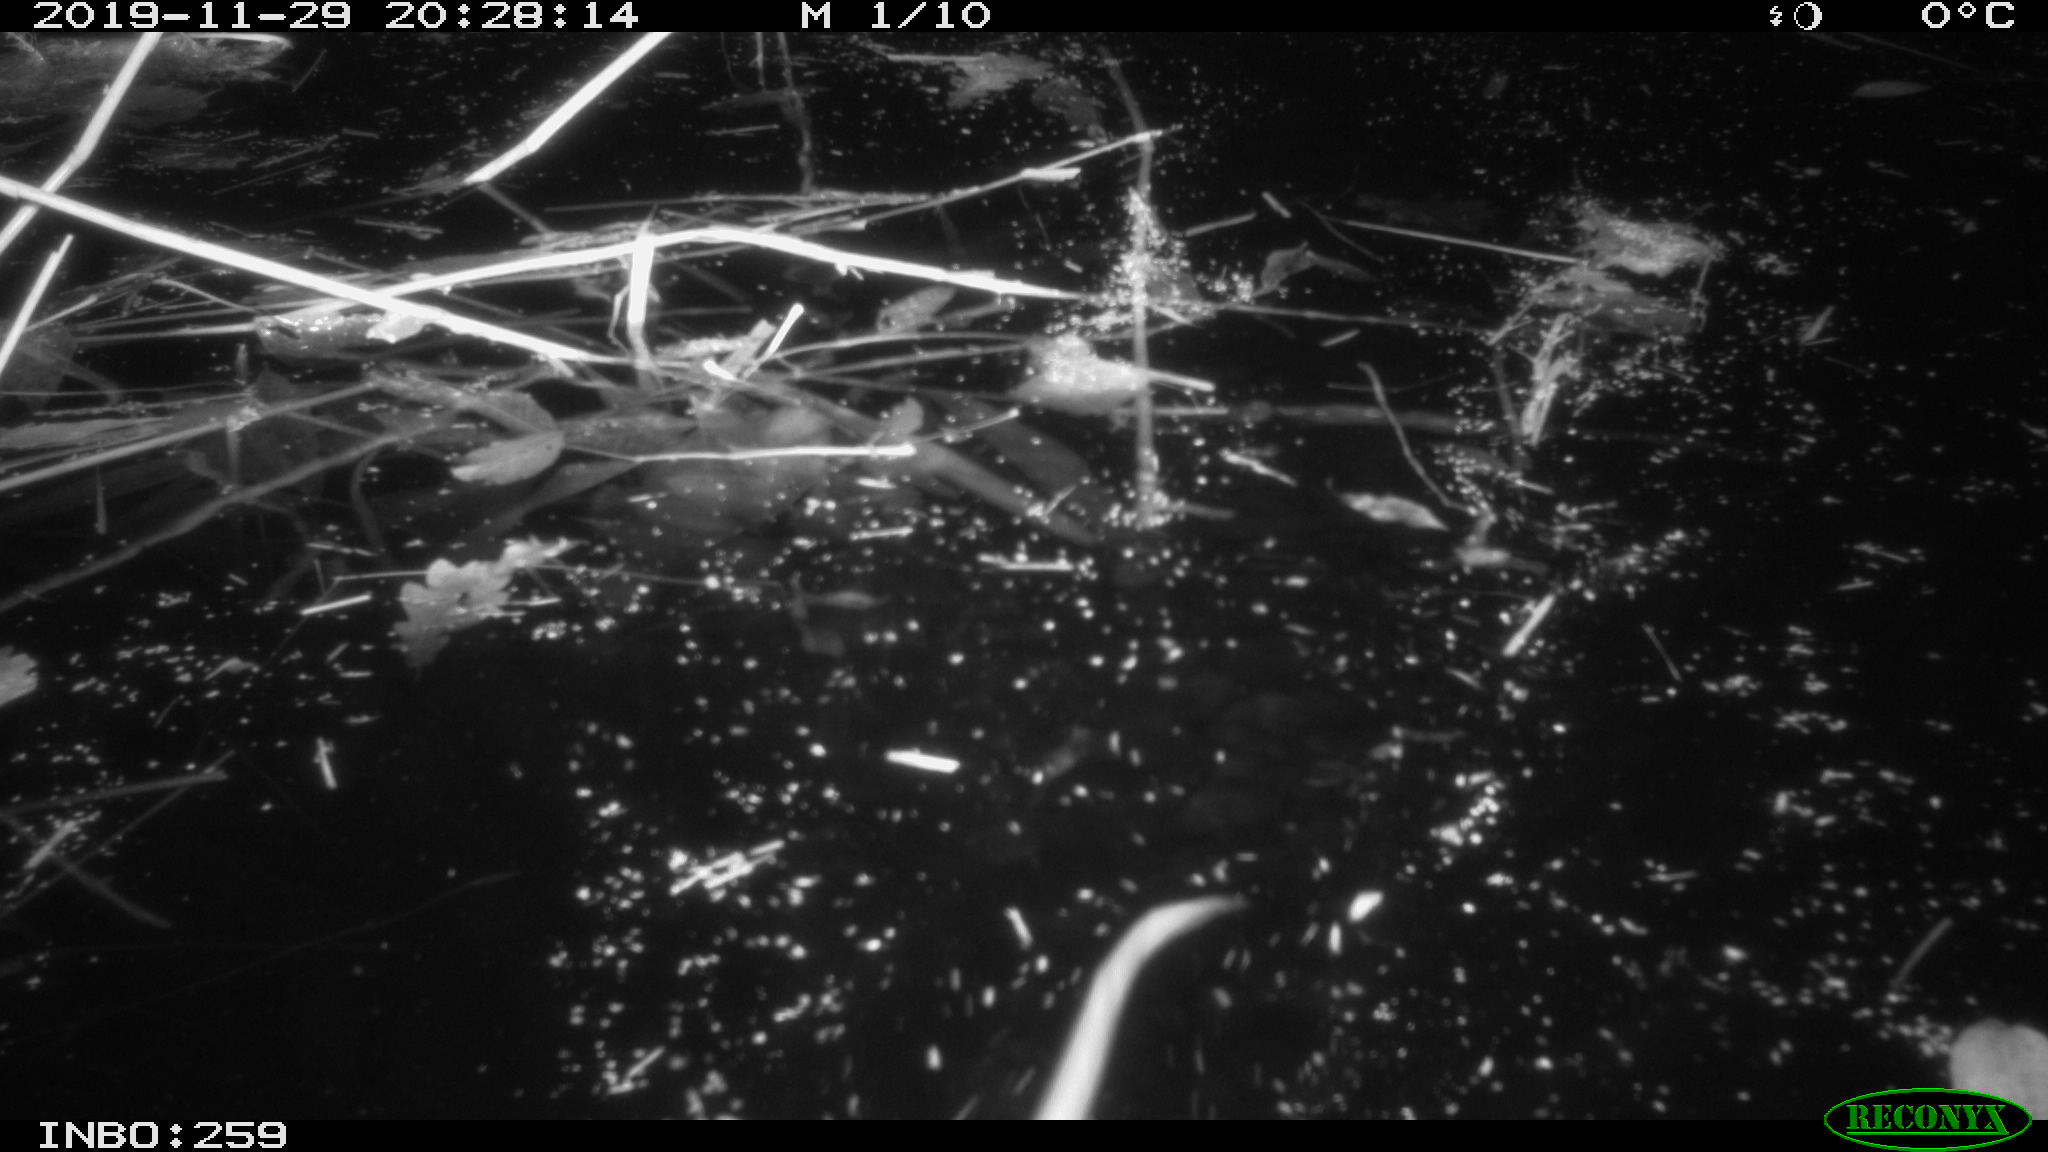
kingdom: Animalia
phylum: Chordata
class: Mammalia
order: Rodentia
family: Cricetidae
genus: Ondatra
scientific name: Ondatra zibethicus
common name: Muskrat
